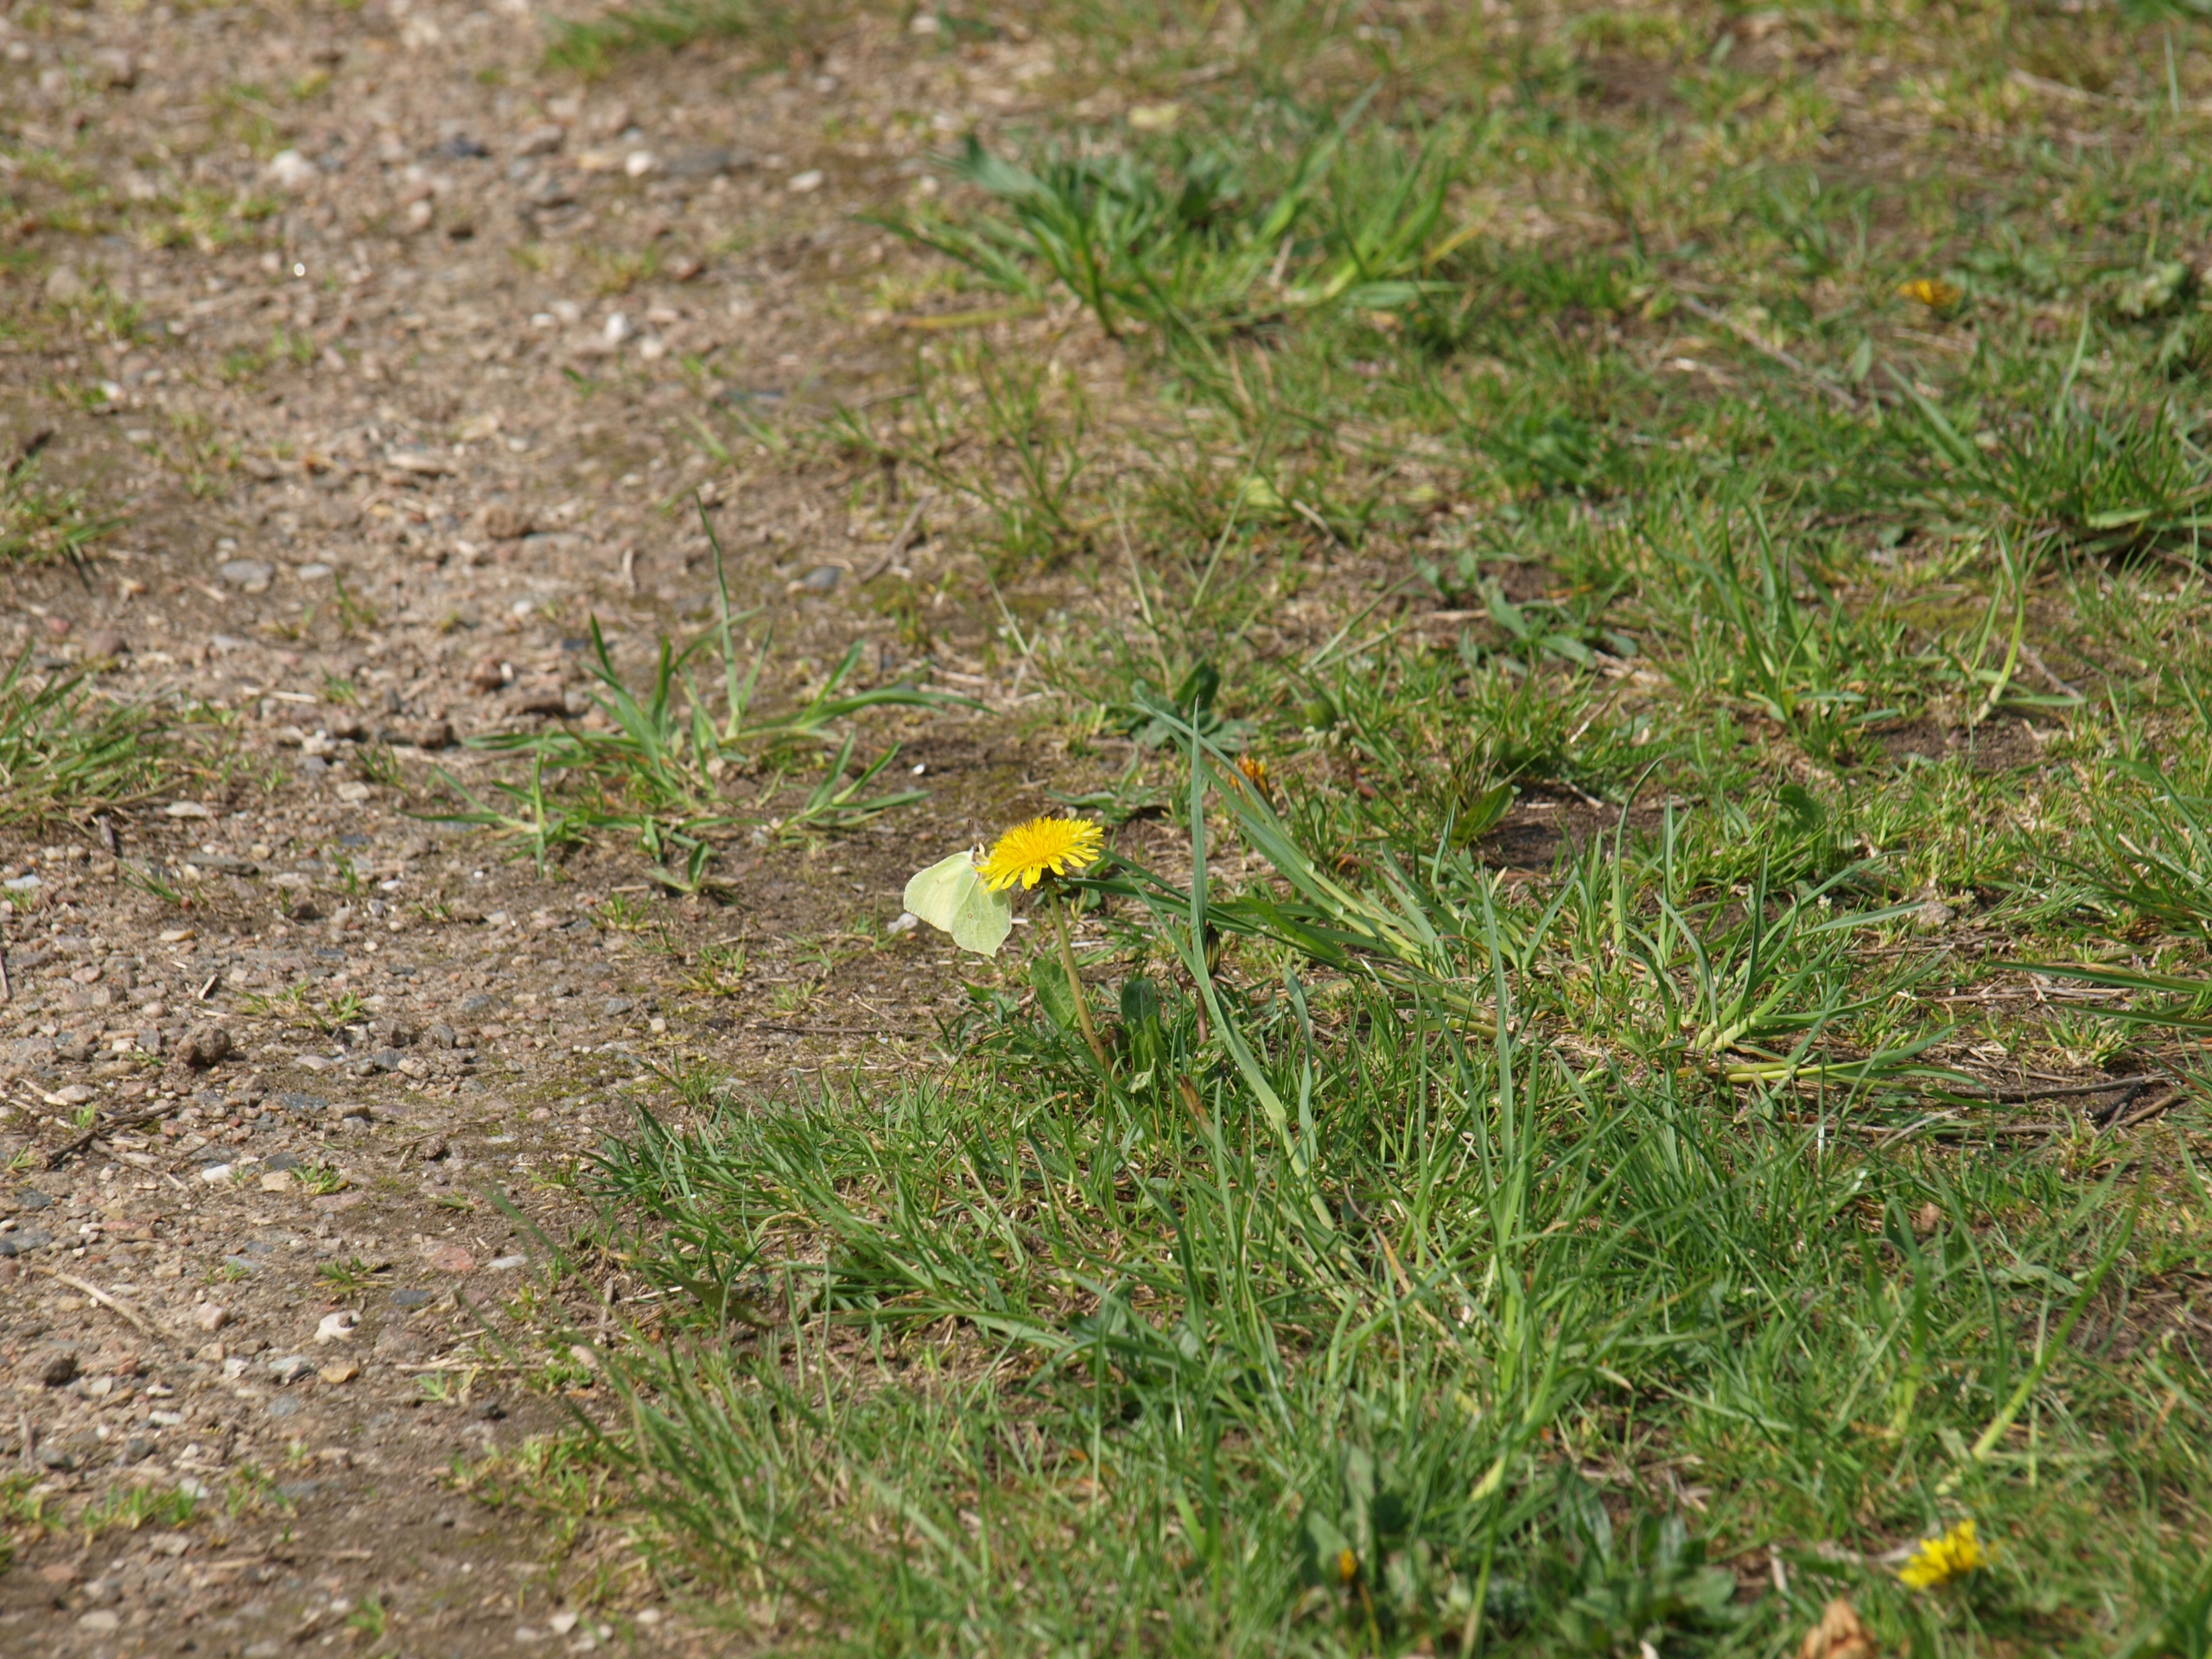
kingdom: Animalia
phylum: Arthropoda
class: Insecta
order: Lepidoptera
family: Pieridae
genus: Gonepteryx
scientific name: Gonepteryx rhamni
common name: Citronsommerfugl
